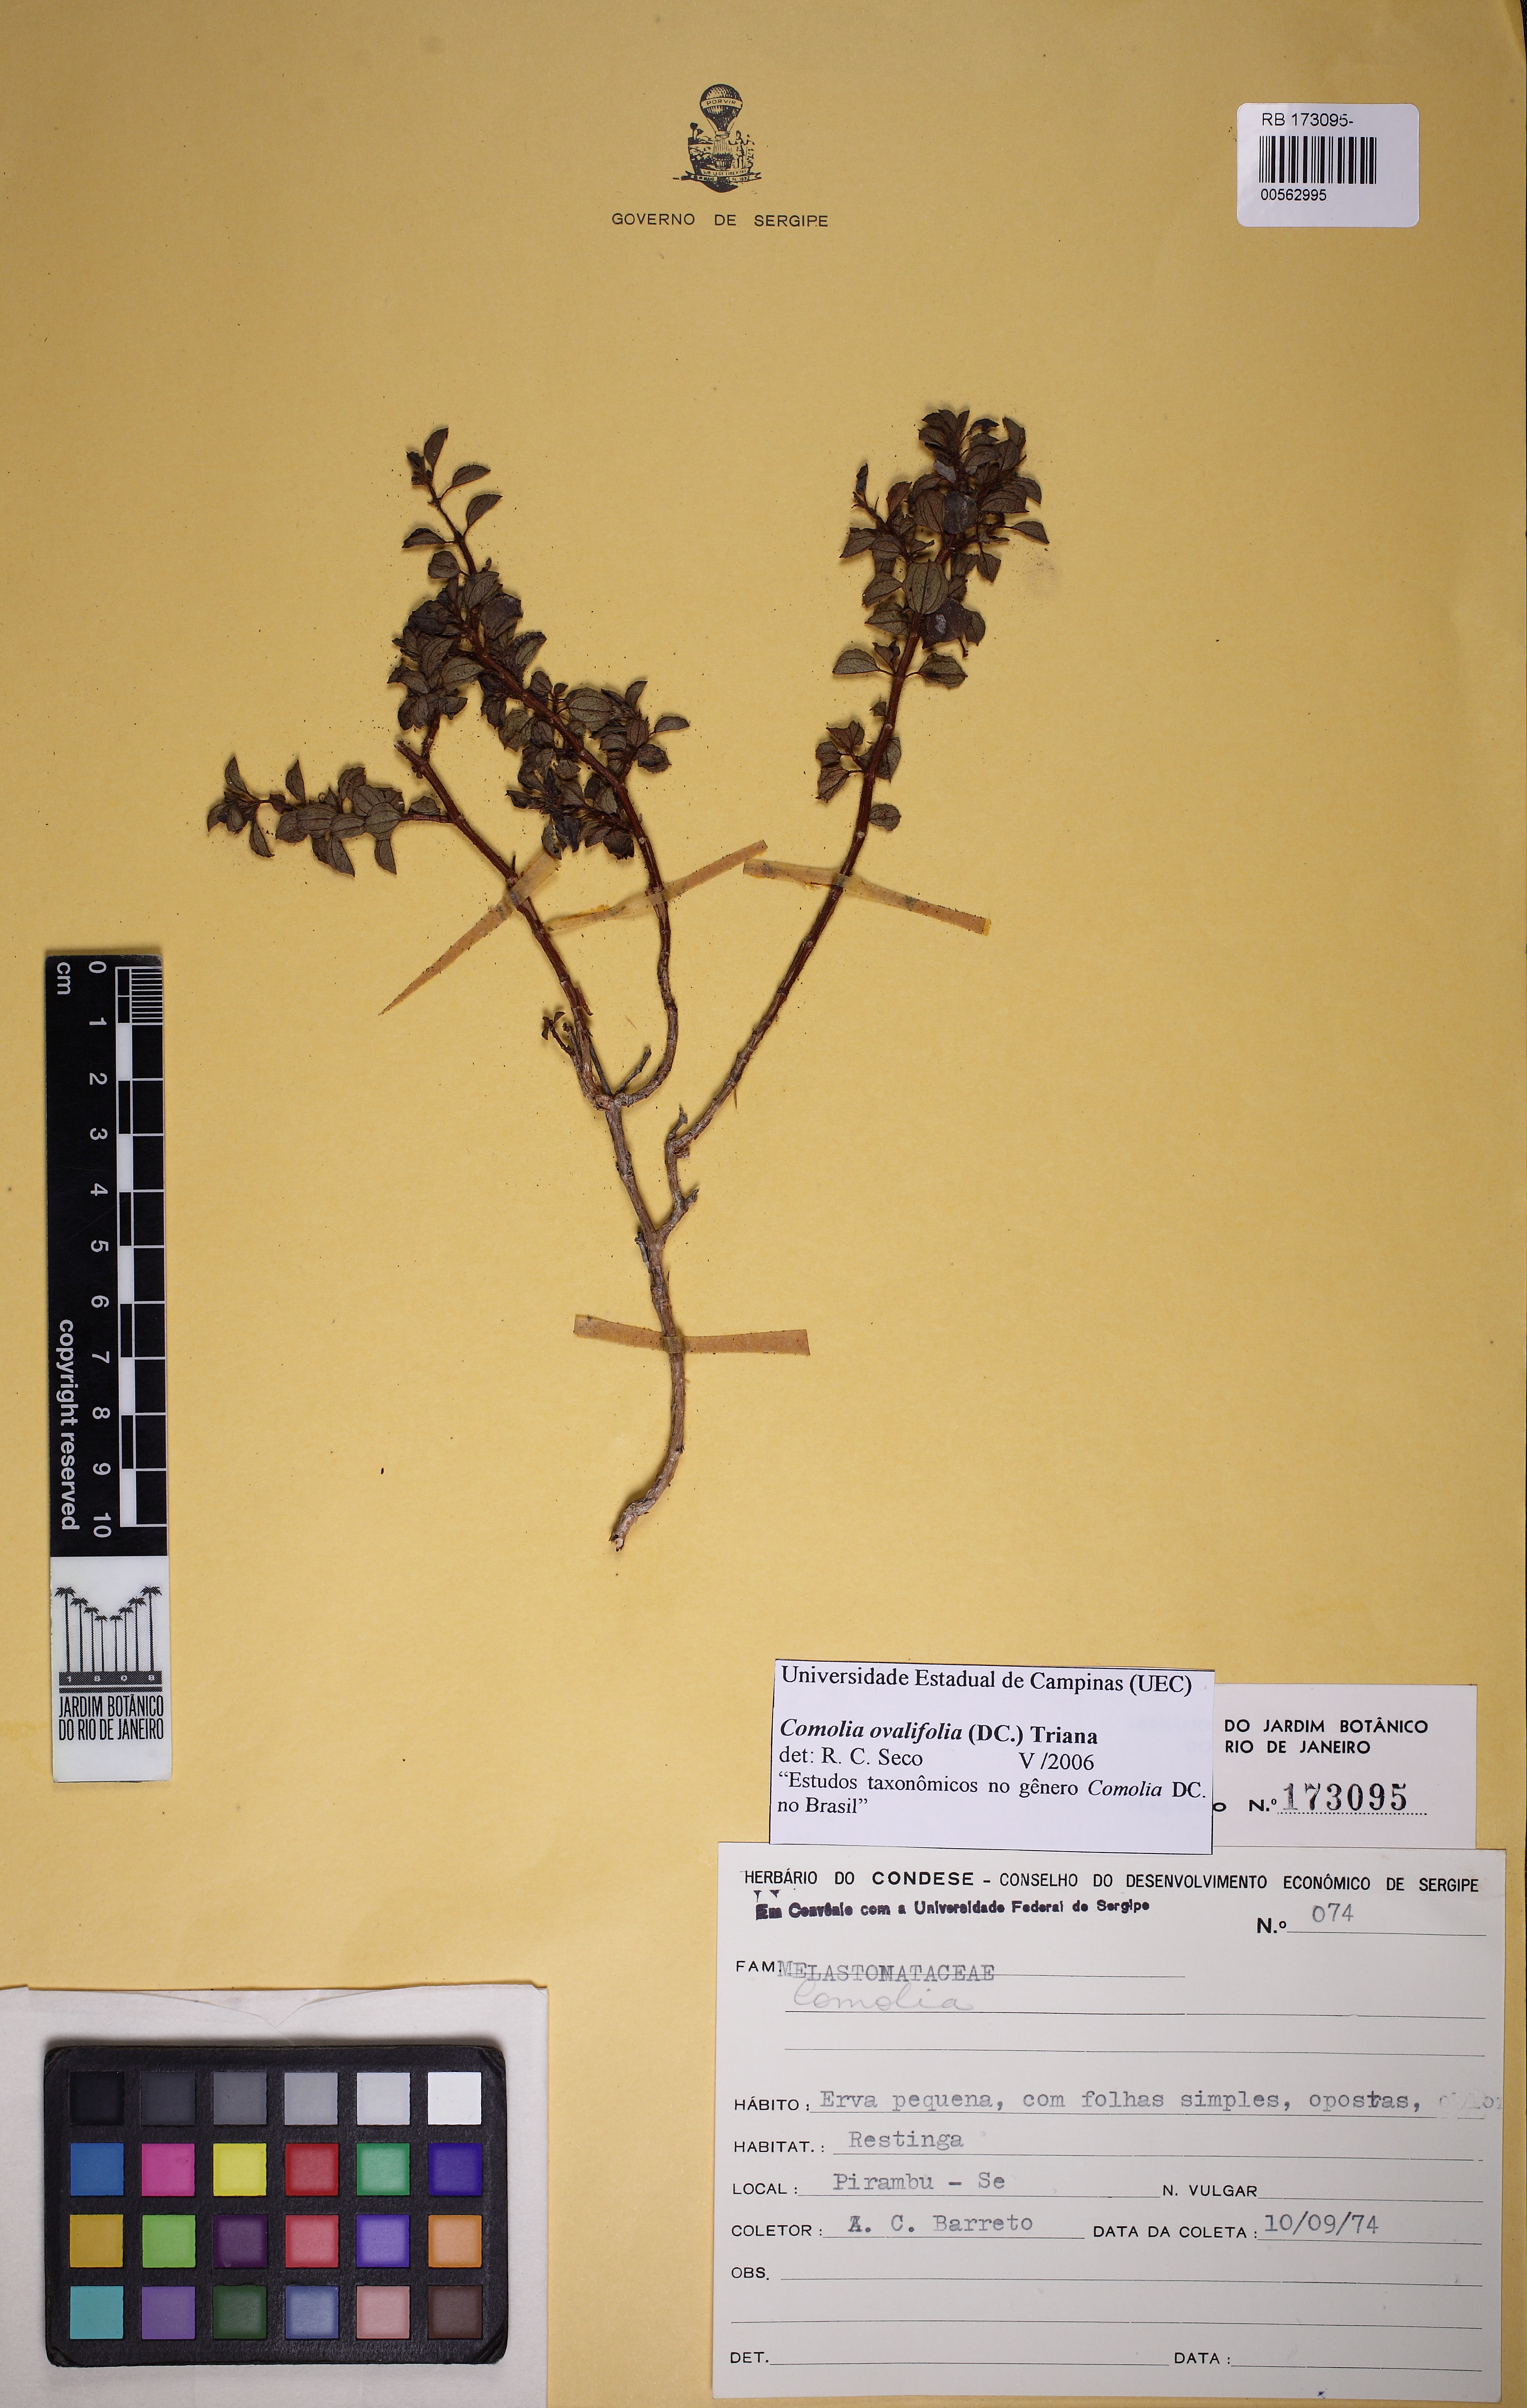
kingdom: Plantae
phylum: Tracheophyta
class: Magnoliopsida
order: Myrtales
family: Melastomataceae
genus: Comolia
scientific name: Comolia ovalifolia
